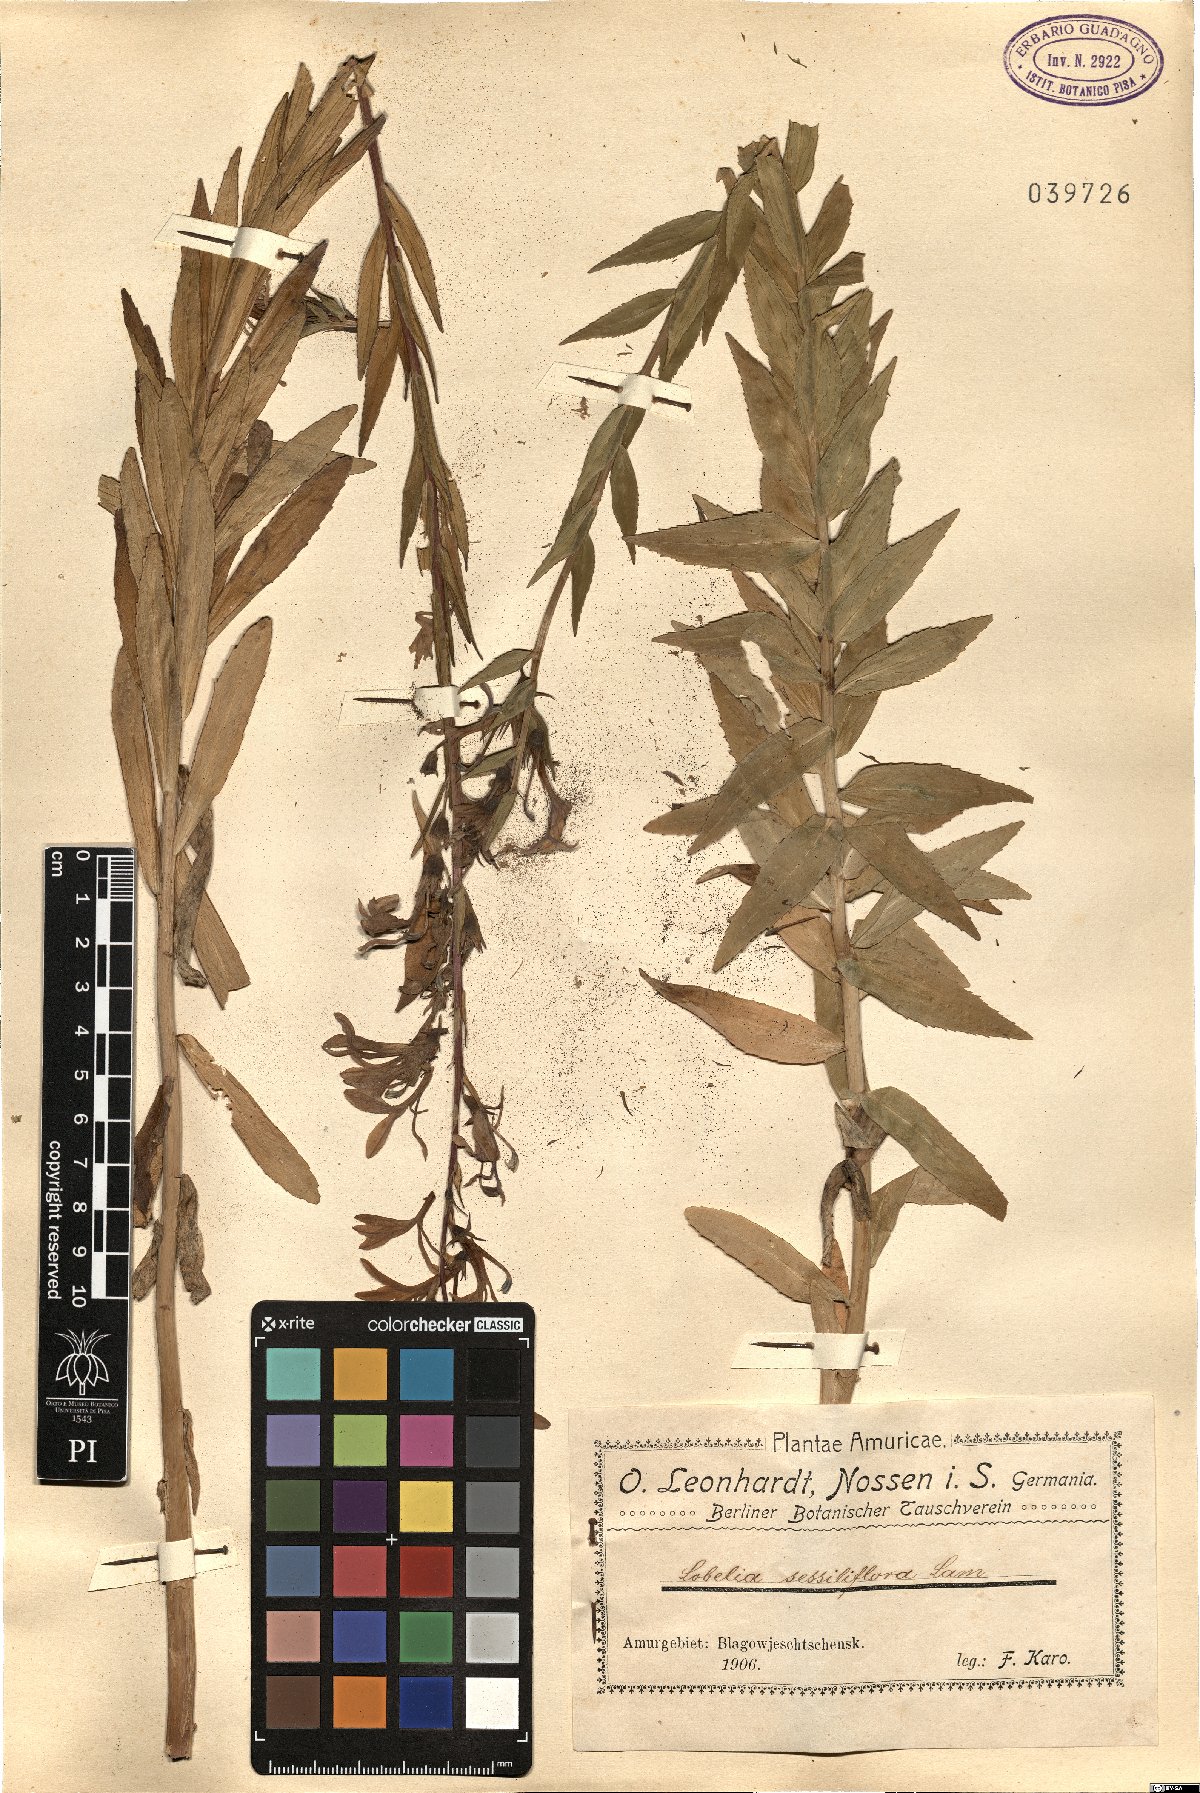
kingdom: Plantae
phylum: Tracheophyta
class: Magnoliopsida
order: Asterales
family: Campanulaceae
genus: Lobelia
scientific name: Lobelia sessilifolia
